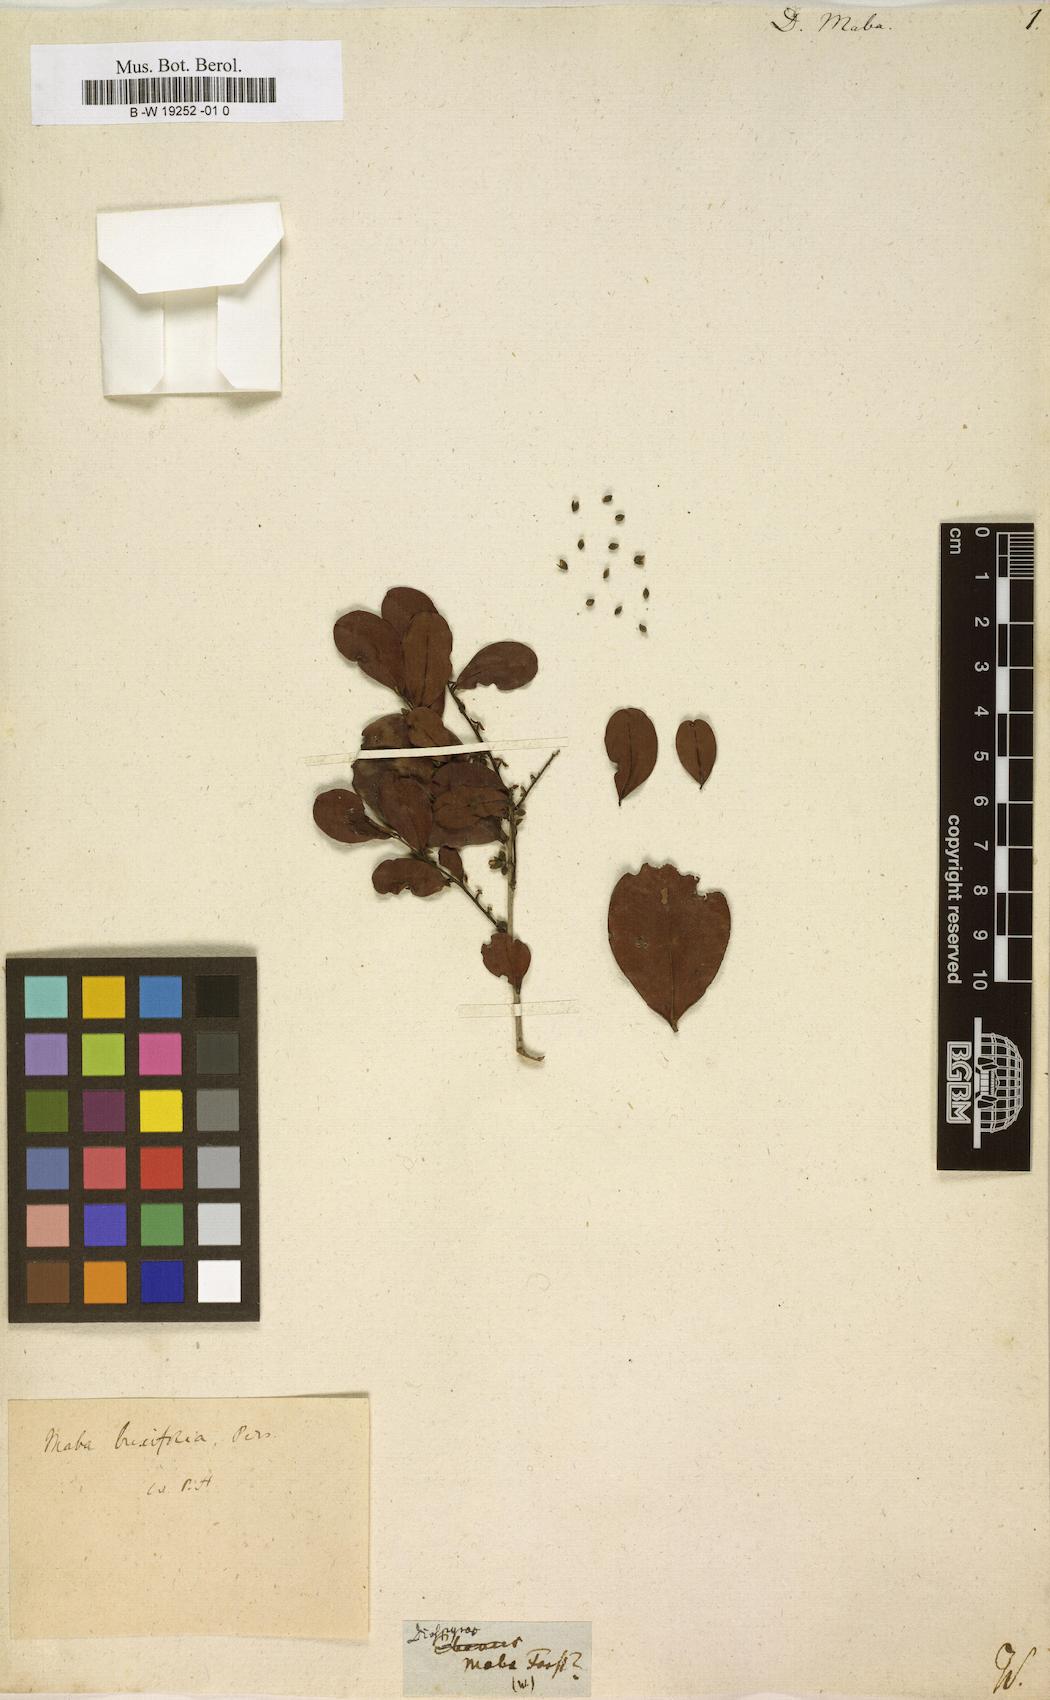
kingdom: Plantae
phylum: Tracheophyta
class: Magnoliopsida
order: Ericales
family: Ebenaceae
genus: Diospyros
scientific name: Diospyros
